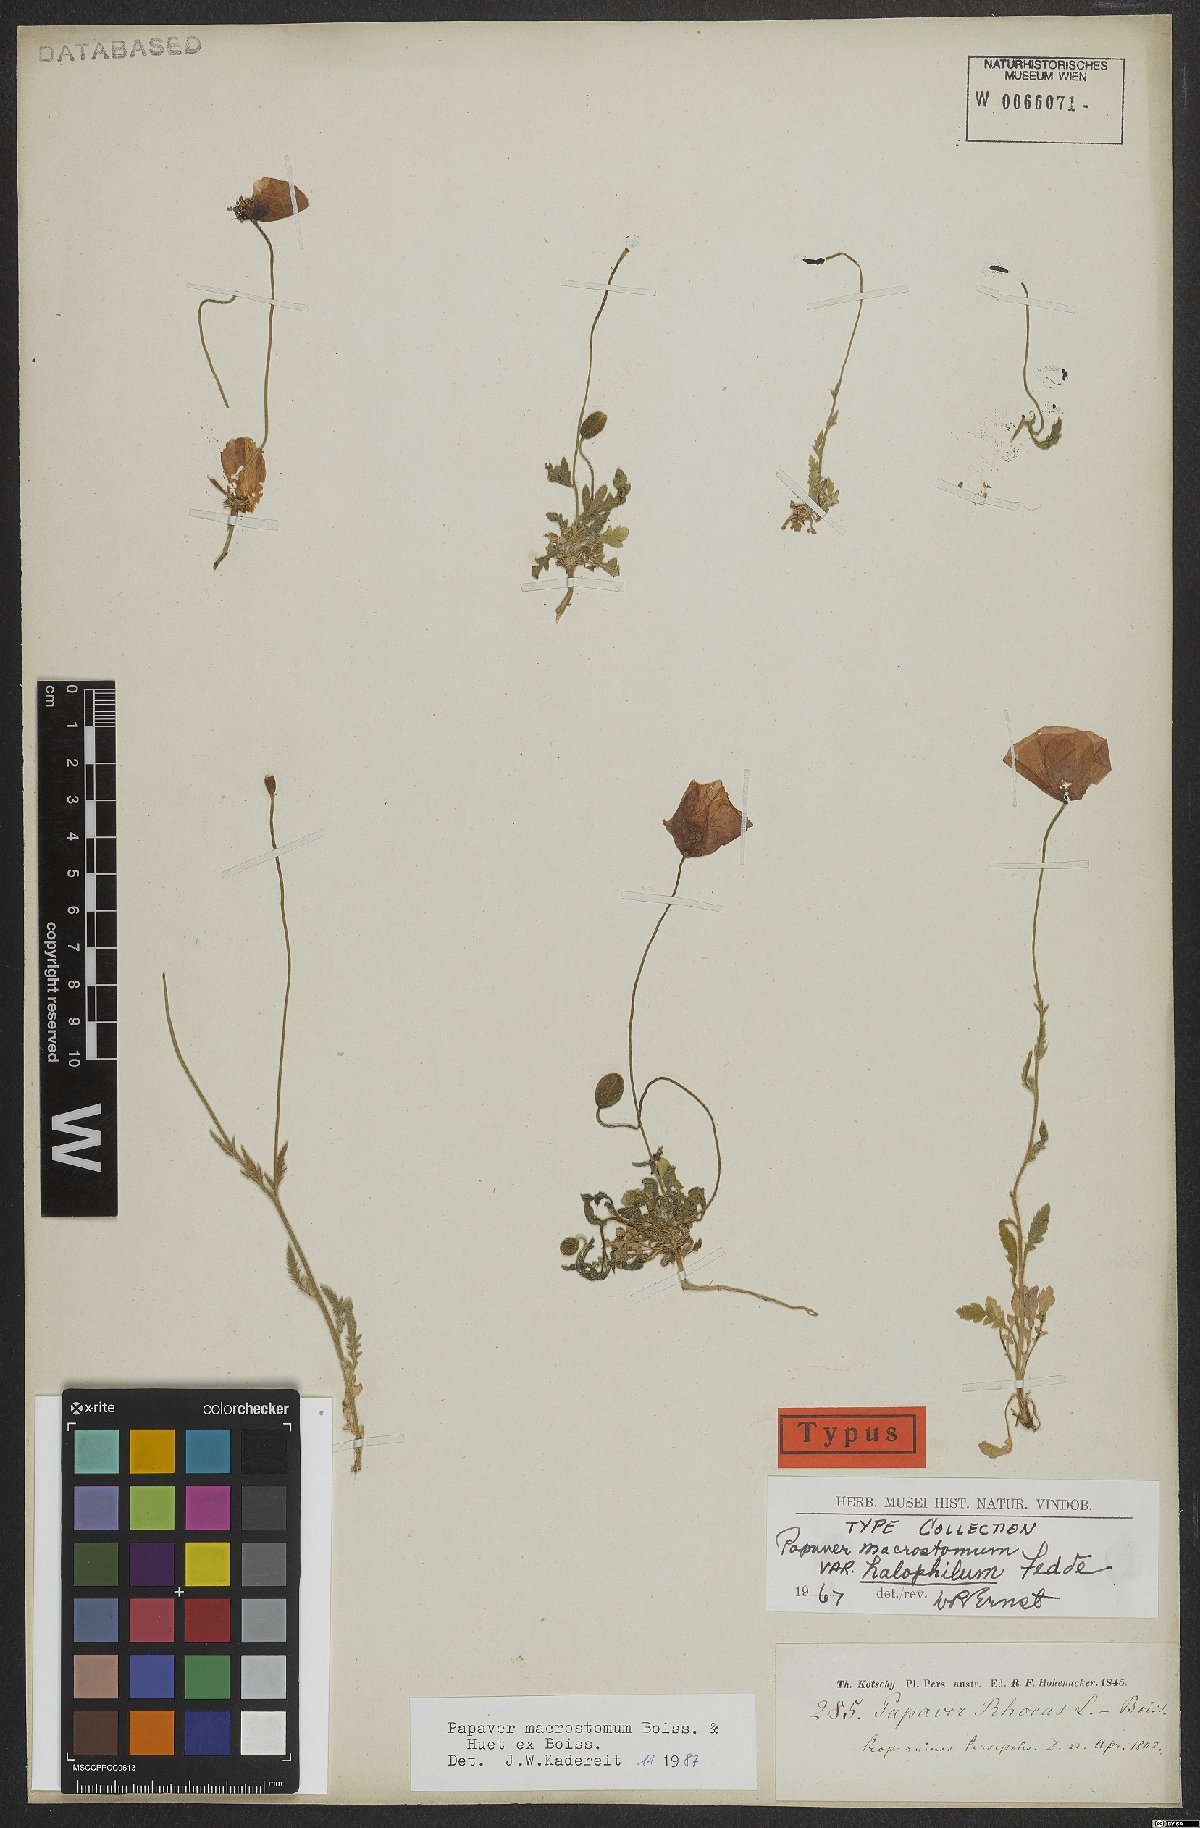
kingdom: Plantae
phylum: Tracheophyta
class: Magnoliopsida
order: Ranunculales
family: Papaveraceae
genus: Papaver
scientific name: Papaver macrostomum
